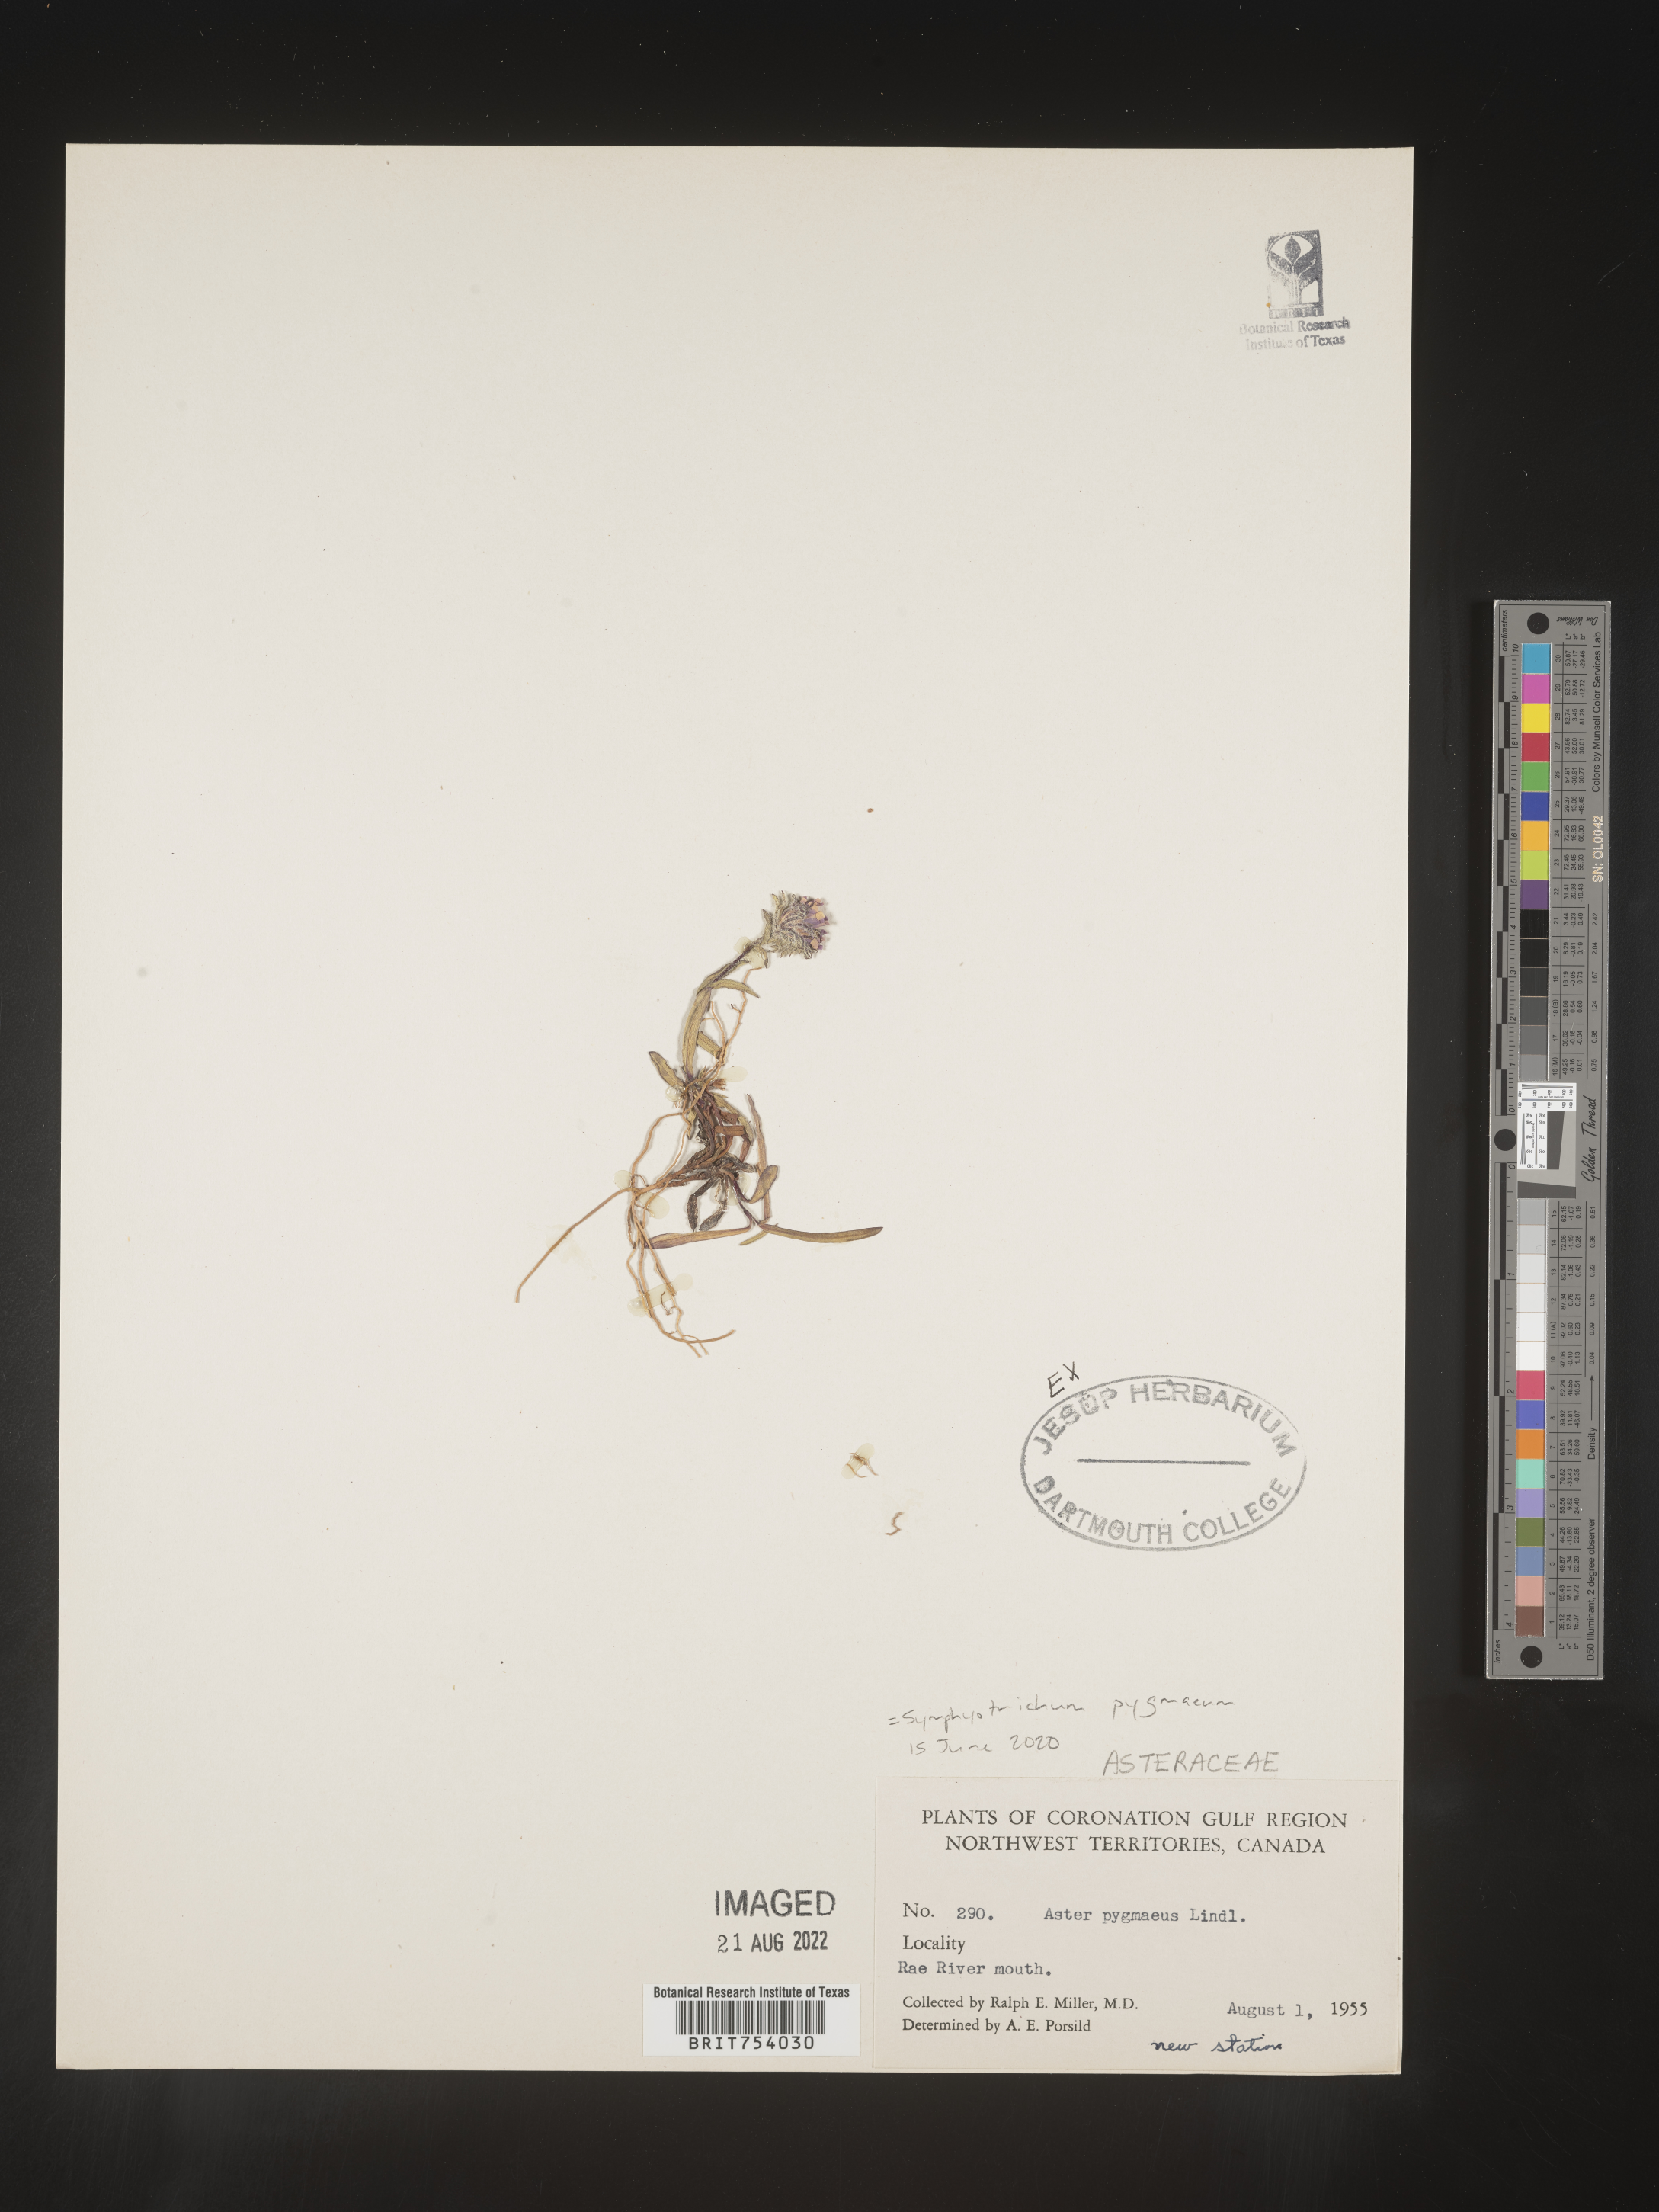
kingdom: Plantae
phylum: Tracheophyta
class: Magnoliopsida
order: Asterales
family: Asteraceae
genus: Symphyotrichum
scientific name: Symphyotrichum pygmaeum
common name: Pygmy aster
